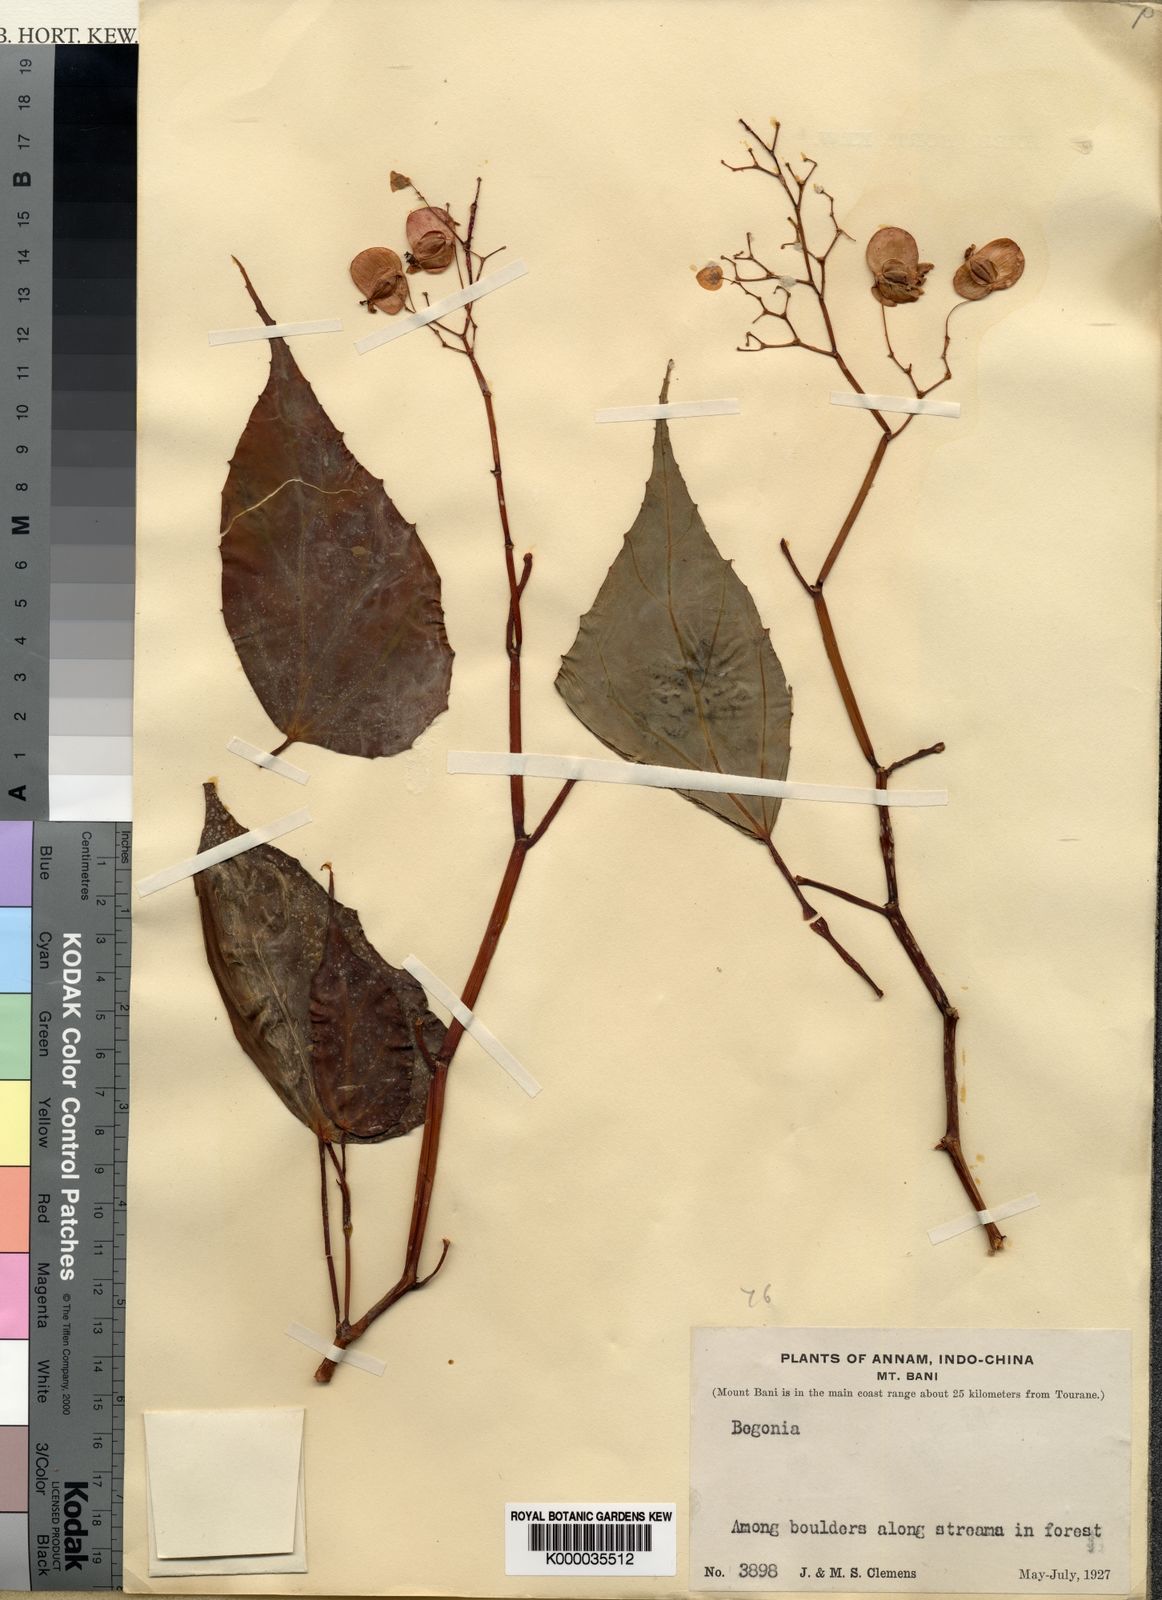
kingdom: Plantae
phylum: Tracheophyta
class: Magnoliopsida
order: Cucurbitales
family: Begoniaceae
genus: Begonia
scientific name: Begonia
